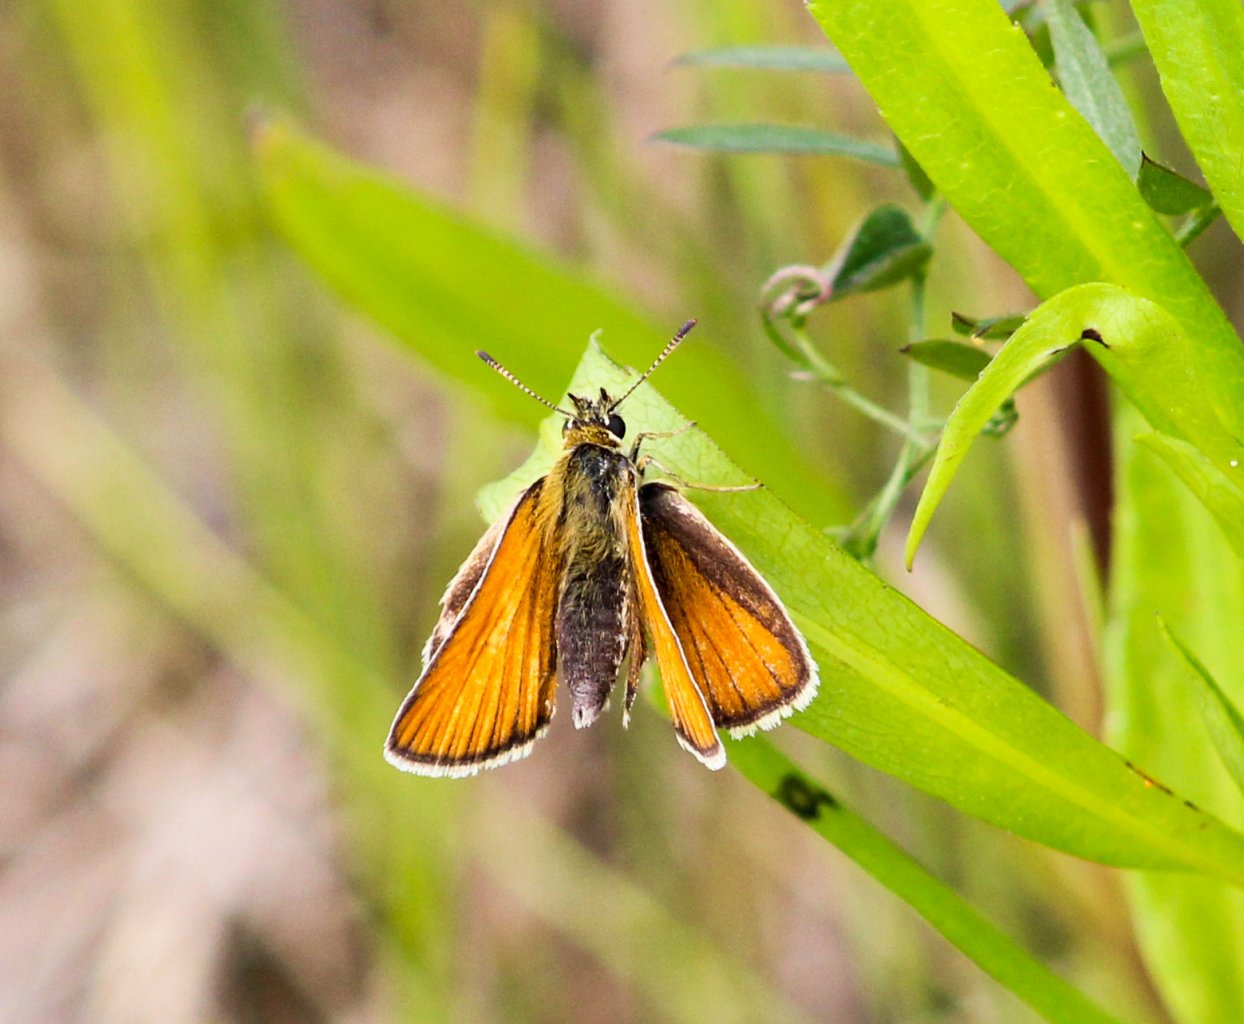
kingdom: Animalia
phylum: Arthropoda
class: Insecta
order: Lepidoptera
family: Hesperiidae
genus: Thymelicus
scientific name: Thymelicus lineola
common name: European Skipper
